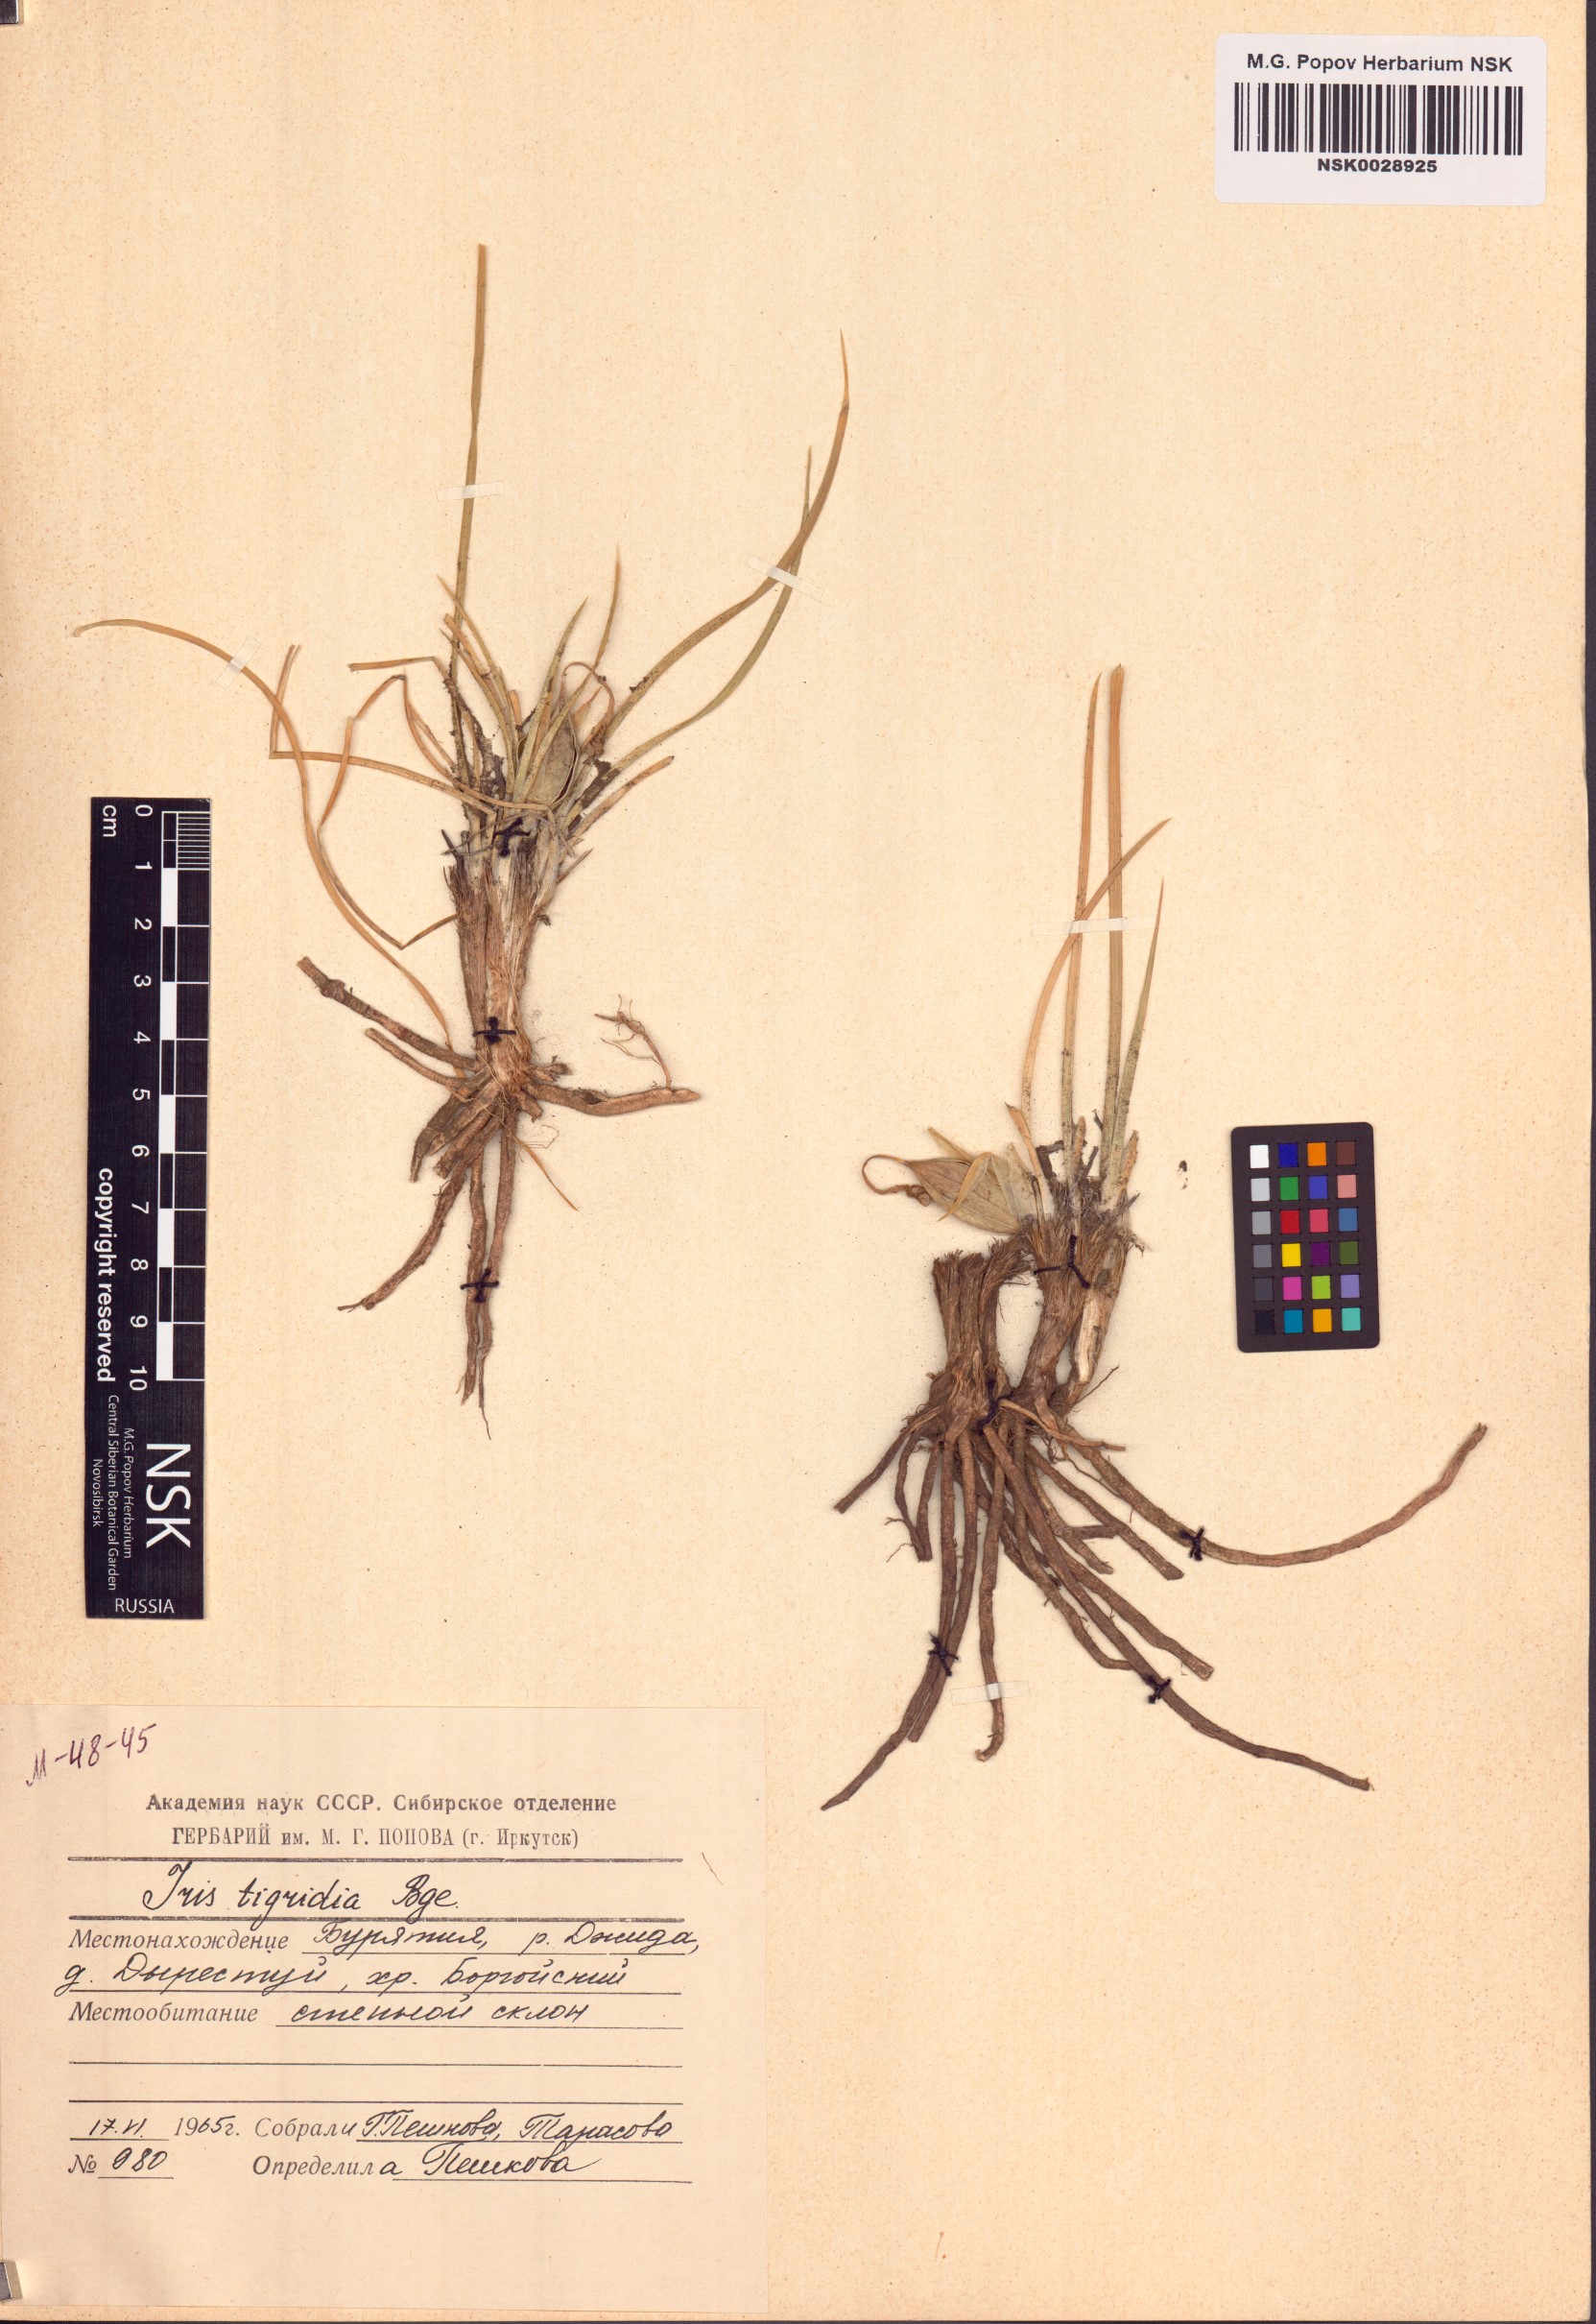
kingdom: Plantae
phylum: Tracheophyta
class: Liliopsida
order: Asparagales
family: Iridaceae
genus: Iris
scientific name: Iris tigridia
